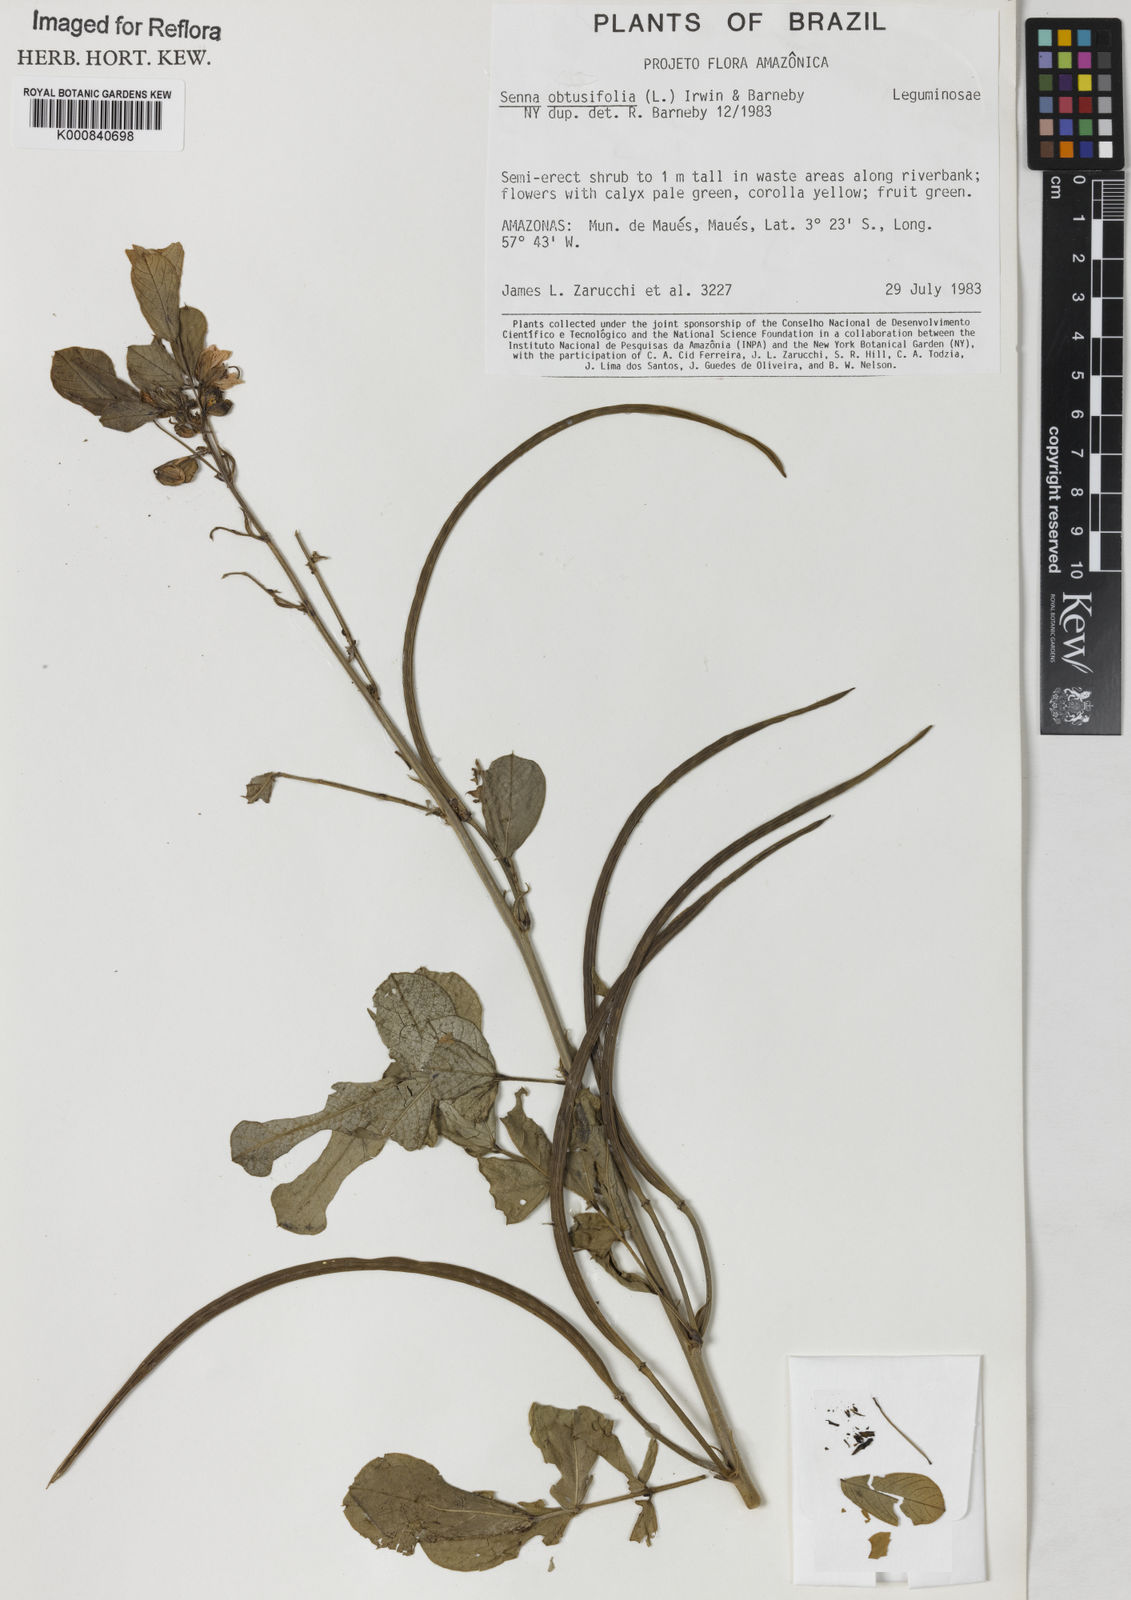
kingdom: Plantae
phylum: Tracheophyta
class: Magnoliopsida
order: Fabales
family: Fabaceae
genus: Senna
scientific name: Senna obtusifolia
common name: Java-bean
